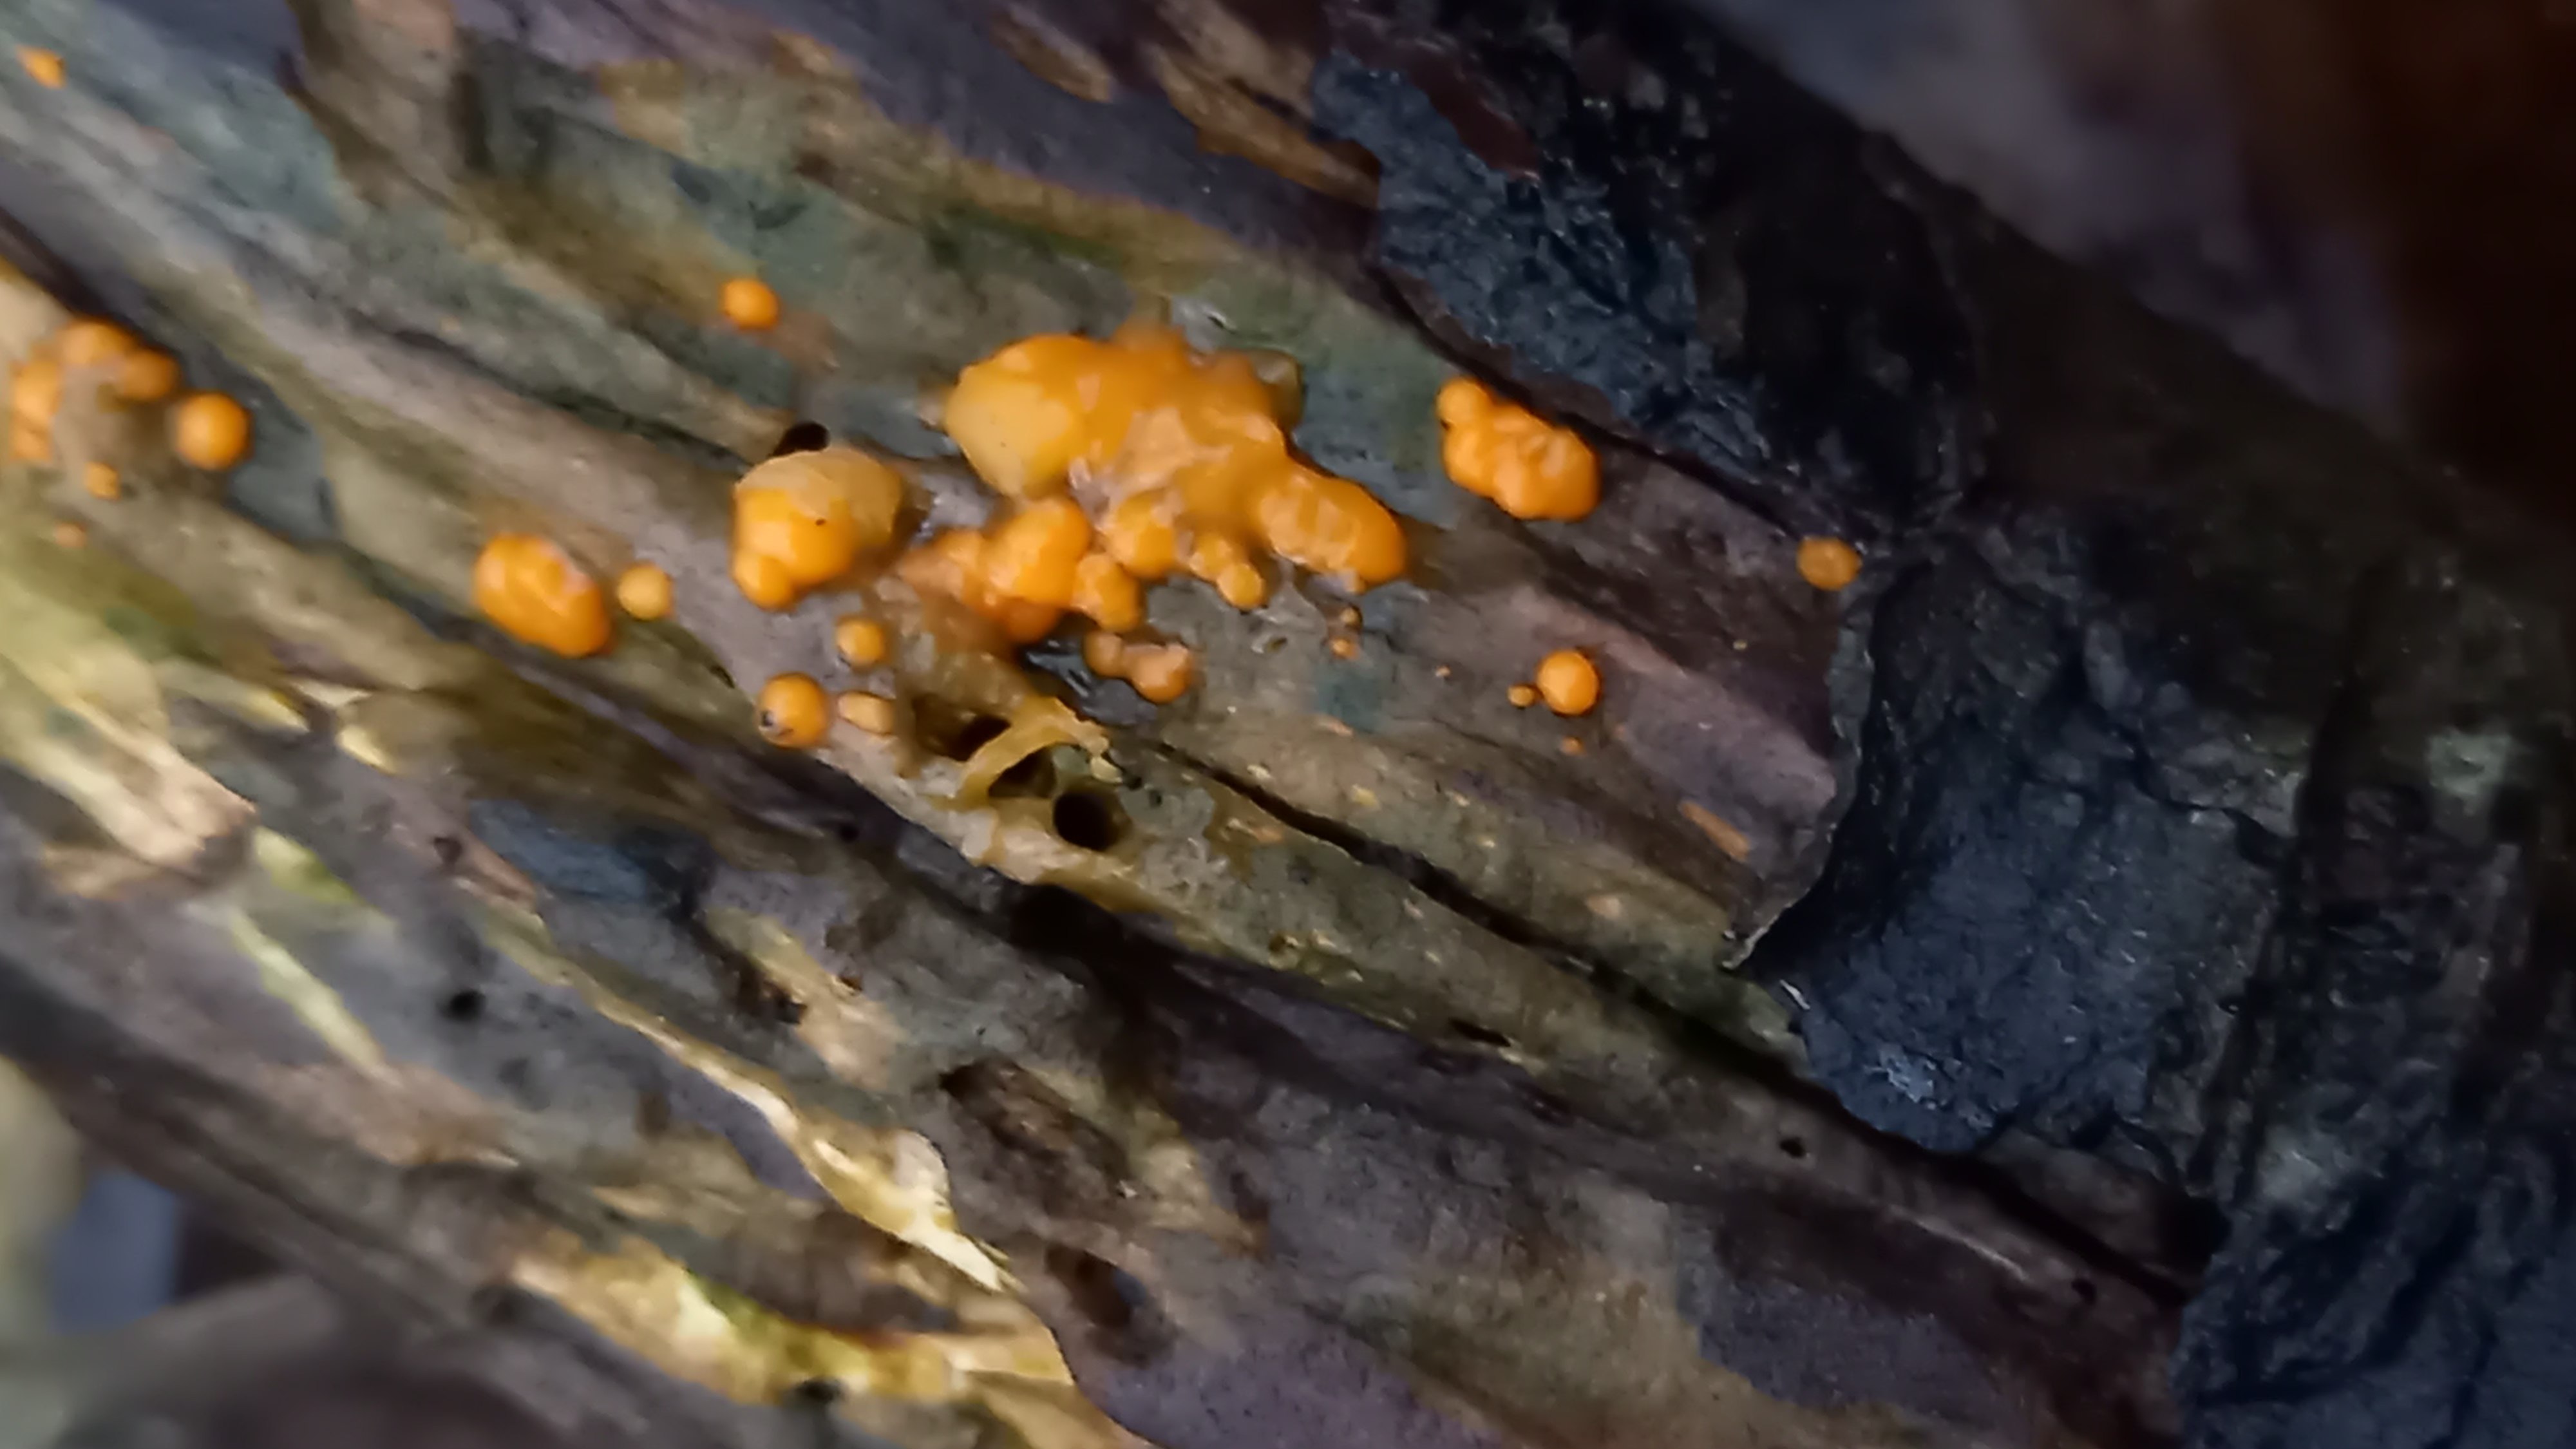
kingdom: Fungi
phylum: Basidiomycota
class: Dacrymycetes
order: Dacrymycetales
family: Dacrymycetaceae
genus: Dacrymyces
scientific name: Dacrymyces stillatus
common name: almindelig tåresvamp
